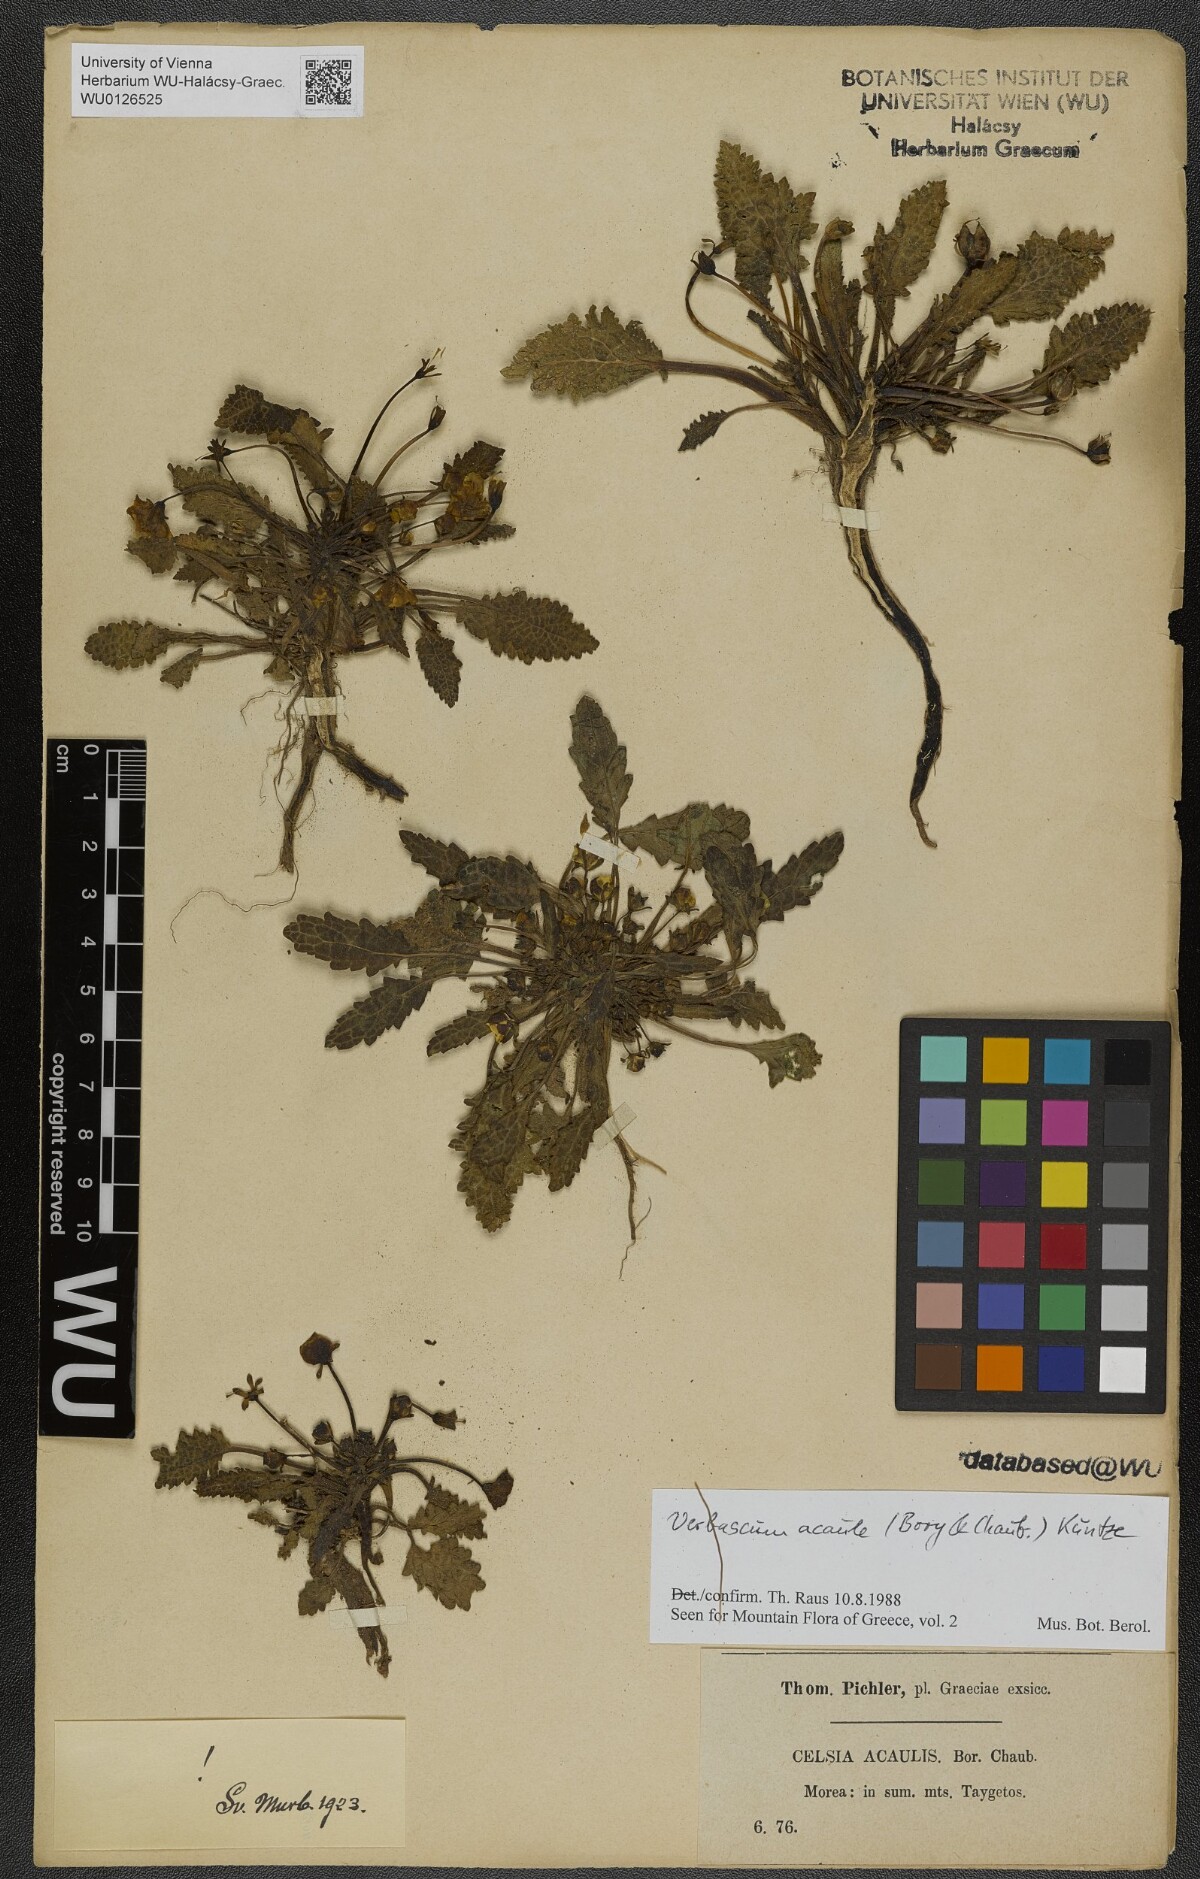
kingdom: Plantae
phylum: Tracheophyta
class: Magnoliopsida
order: Lamiales
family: Scrophulariaceae
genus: Verbascum
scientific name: Verbascum acaule
